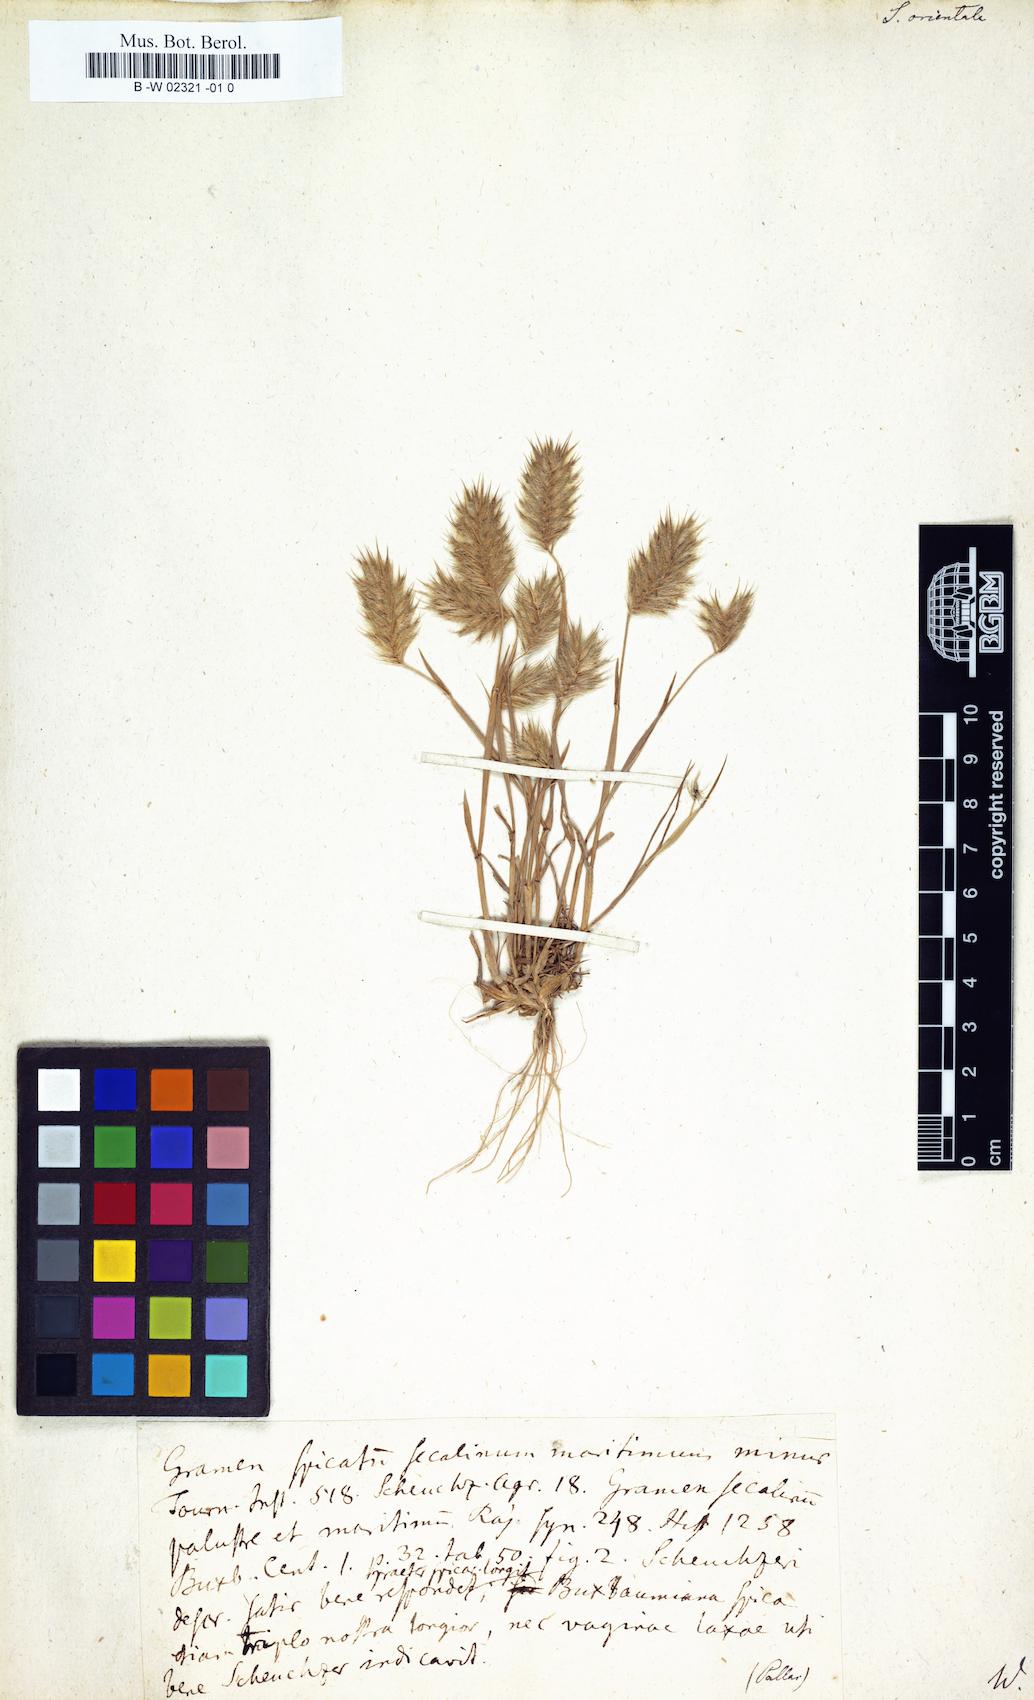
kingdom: Plantae
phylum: Tracheophyta
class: Liliopsida
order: Poales
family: Poaceae
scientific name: Poaceae
